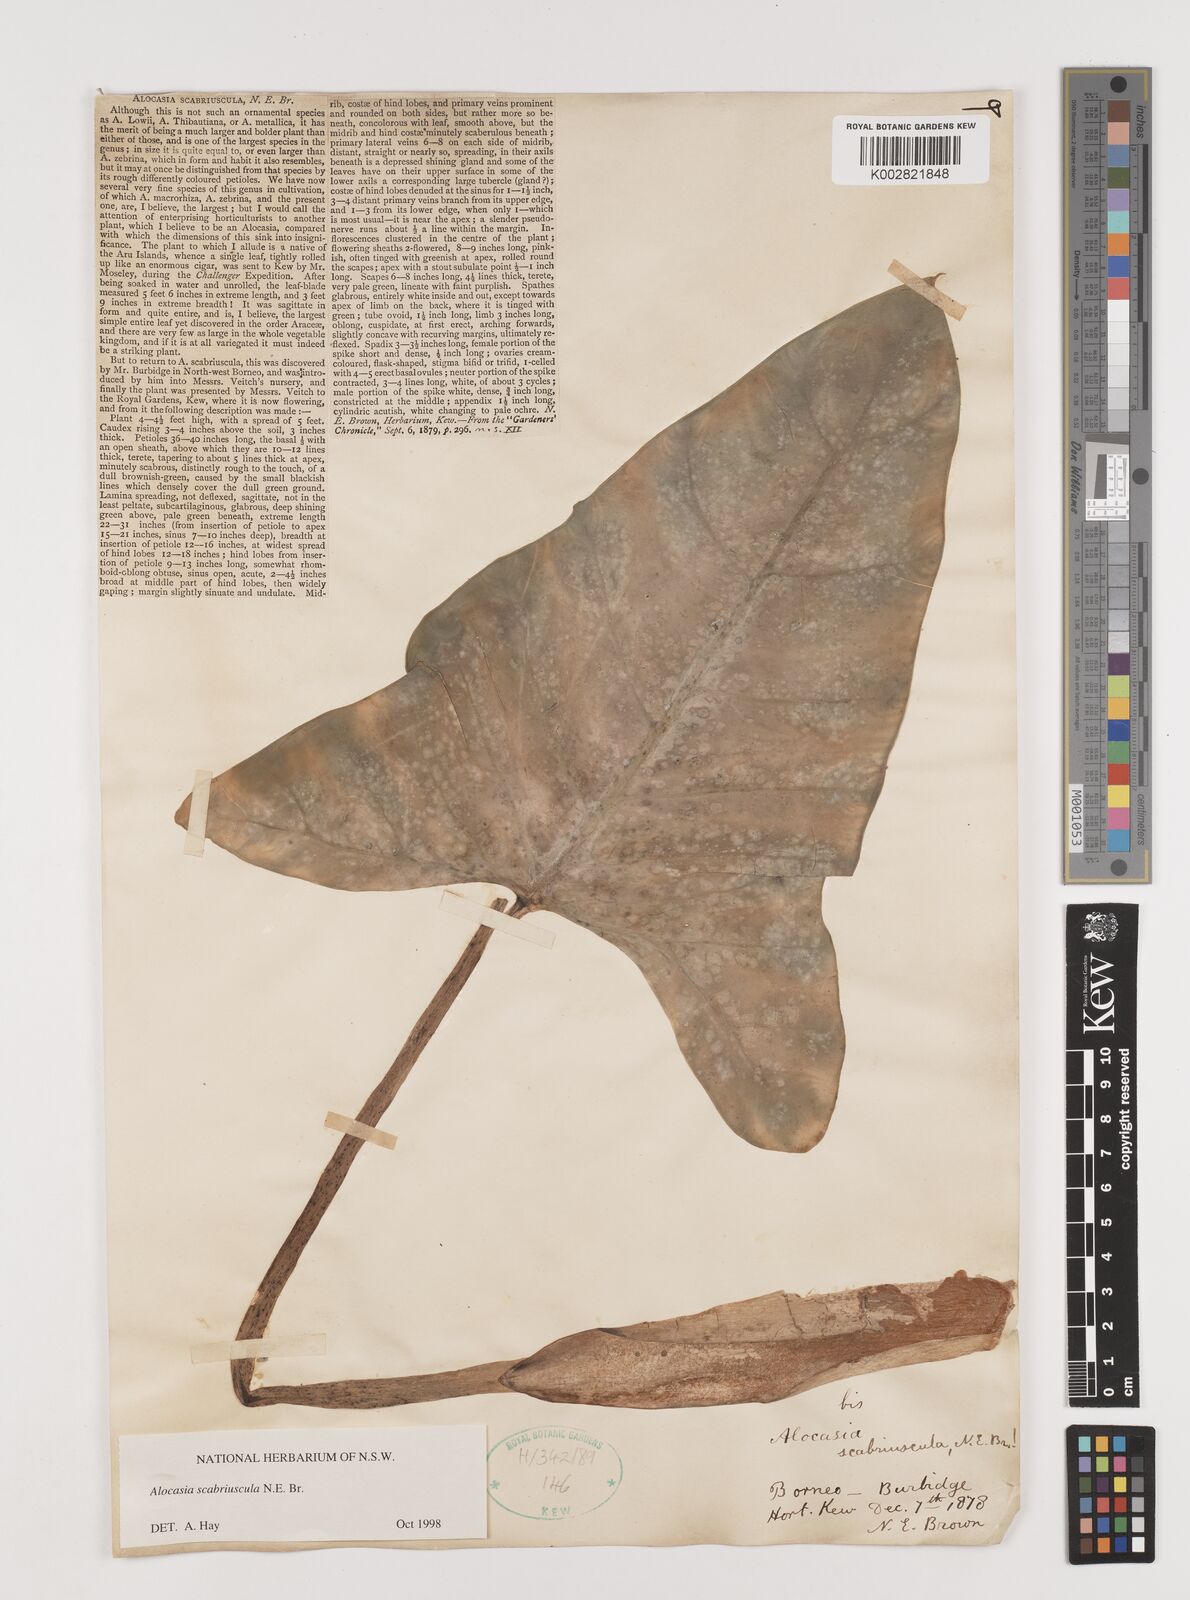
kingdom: Plantae
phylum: Tracheophyta
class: Liliopsida
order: Alismatales
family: Araceae
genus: Alocasia
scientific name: Alocasia scabriuscula
